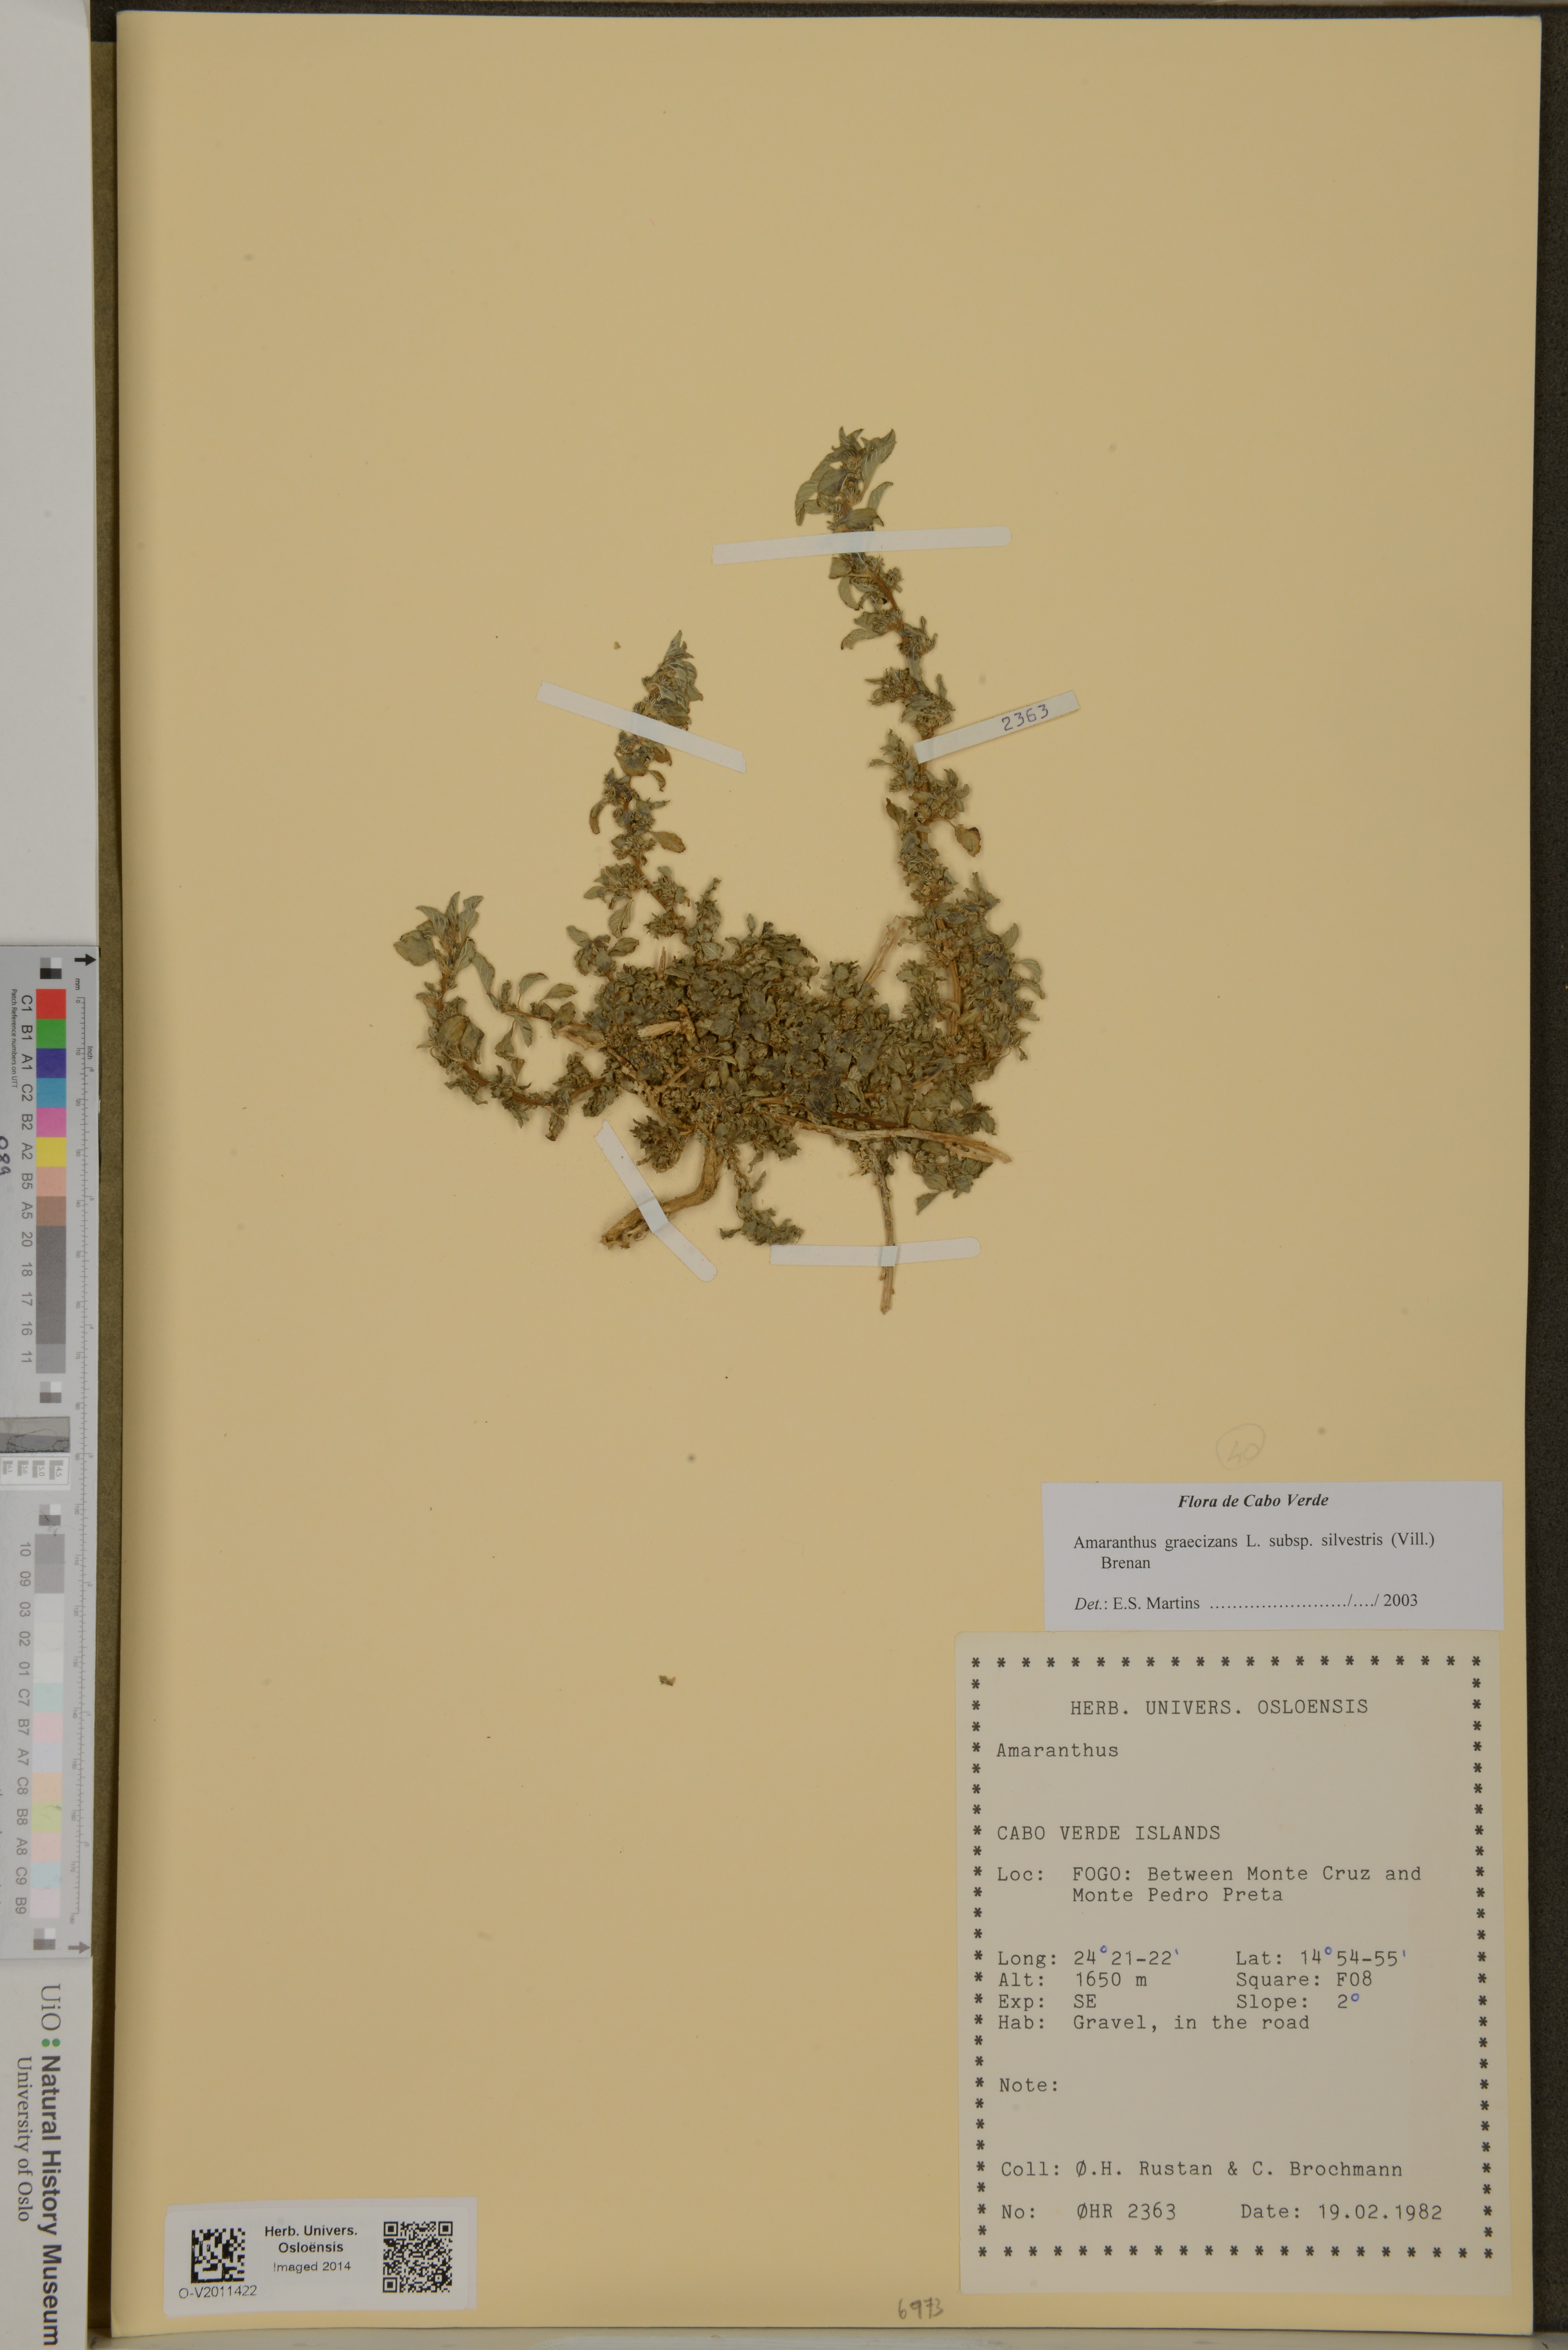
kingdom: Plantae
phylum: Tracheophyta
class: Magnoliopsida
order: Caryophyllales
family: Amaranthaceae
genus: Amaranthus
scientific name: Amaranthus graecizans
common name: Mediterranean amaranth
